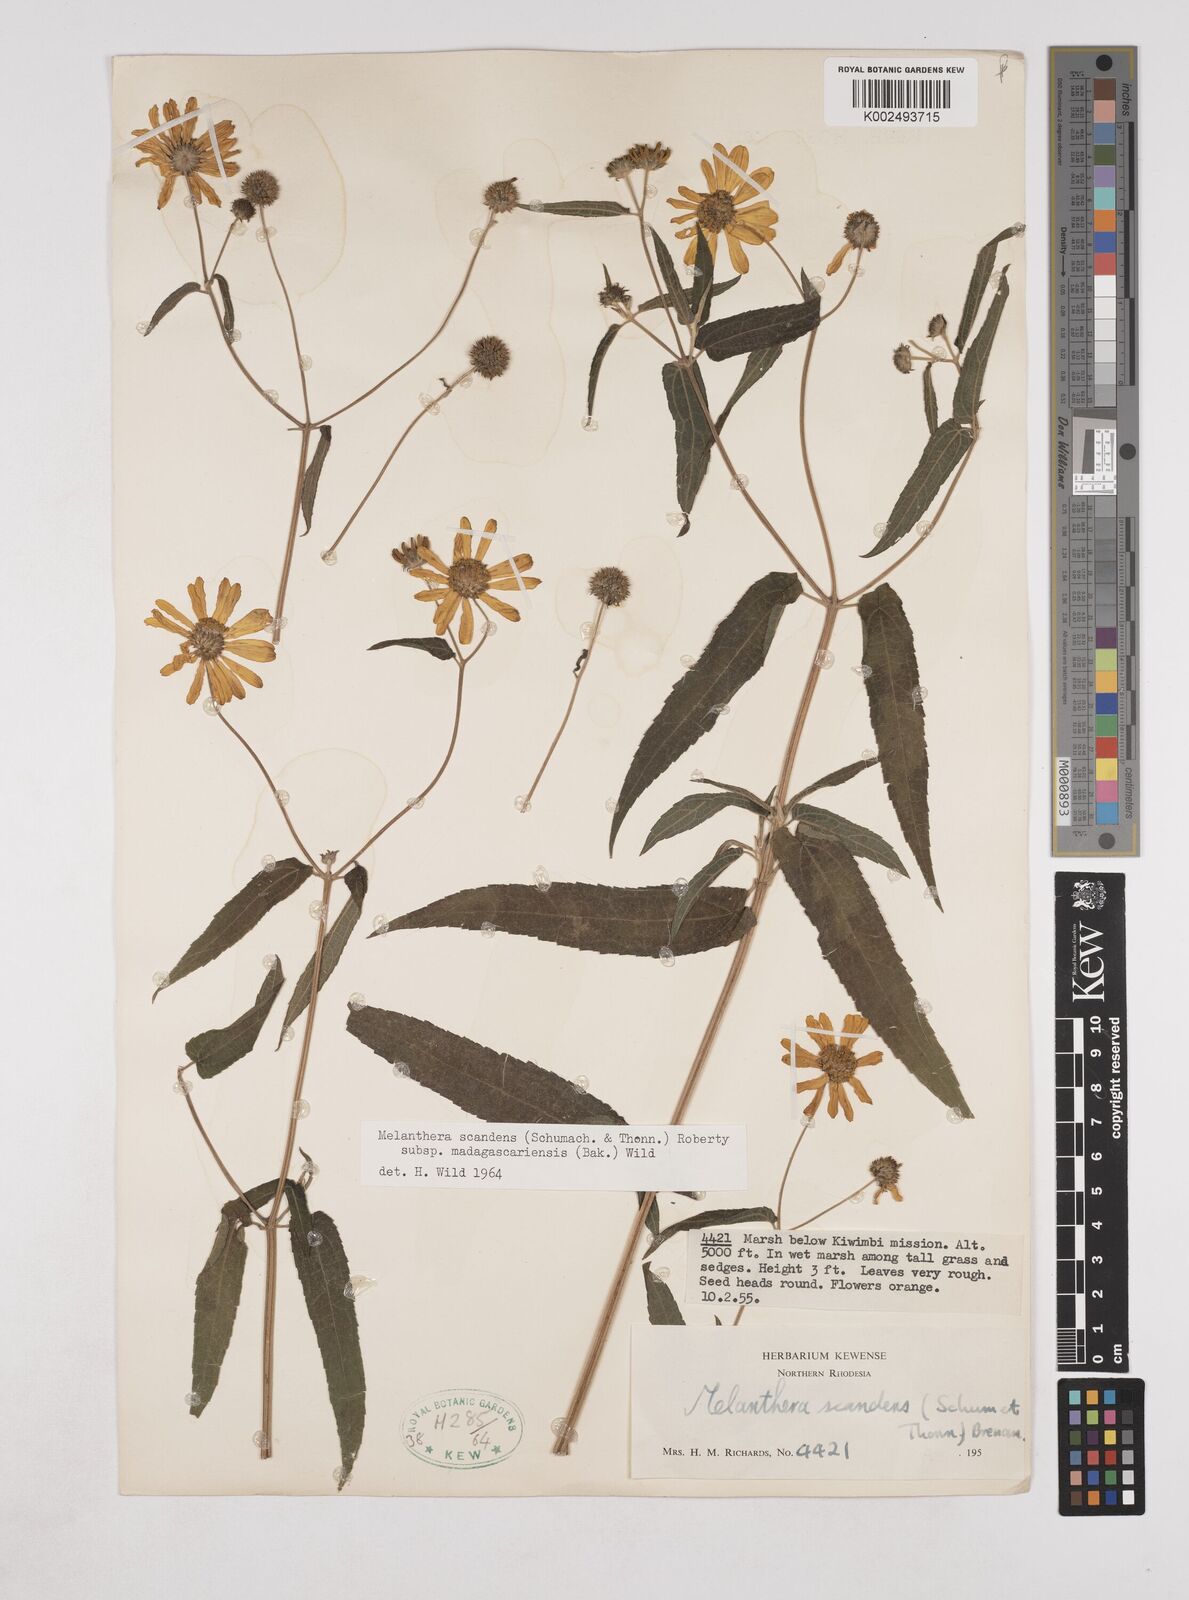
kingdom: Plantae
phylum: Tracheophyta
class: Magnoliopsida
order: Asterales
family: Asteraceae
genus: Lipotriche
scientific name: Lipotriche scandens
